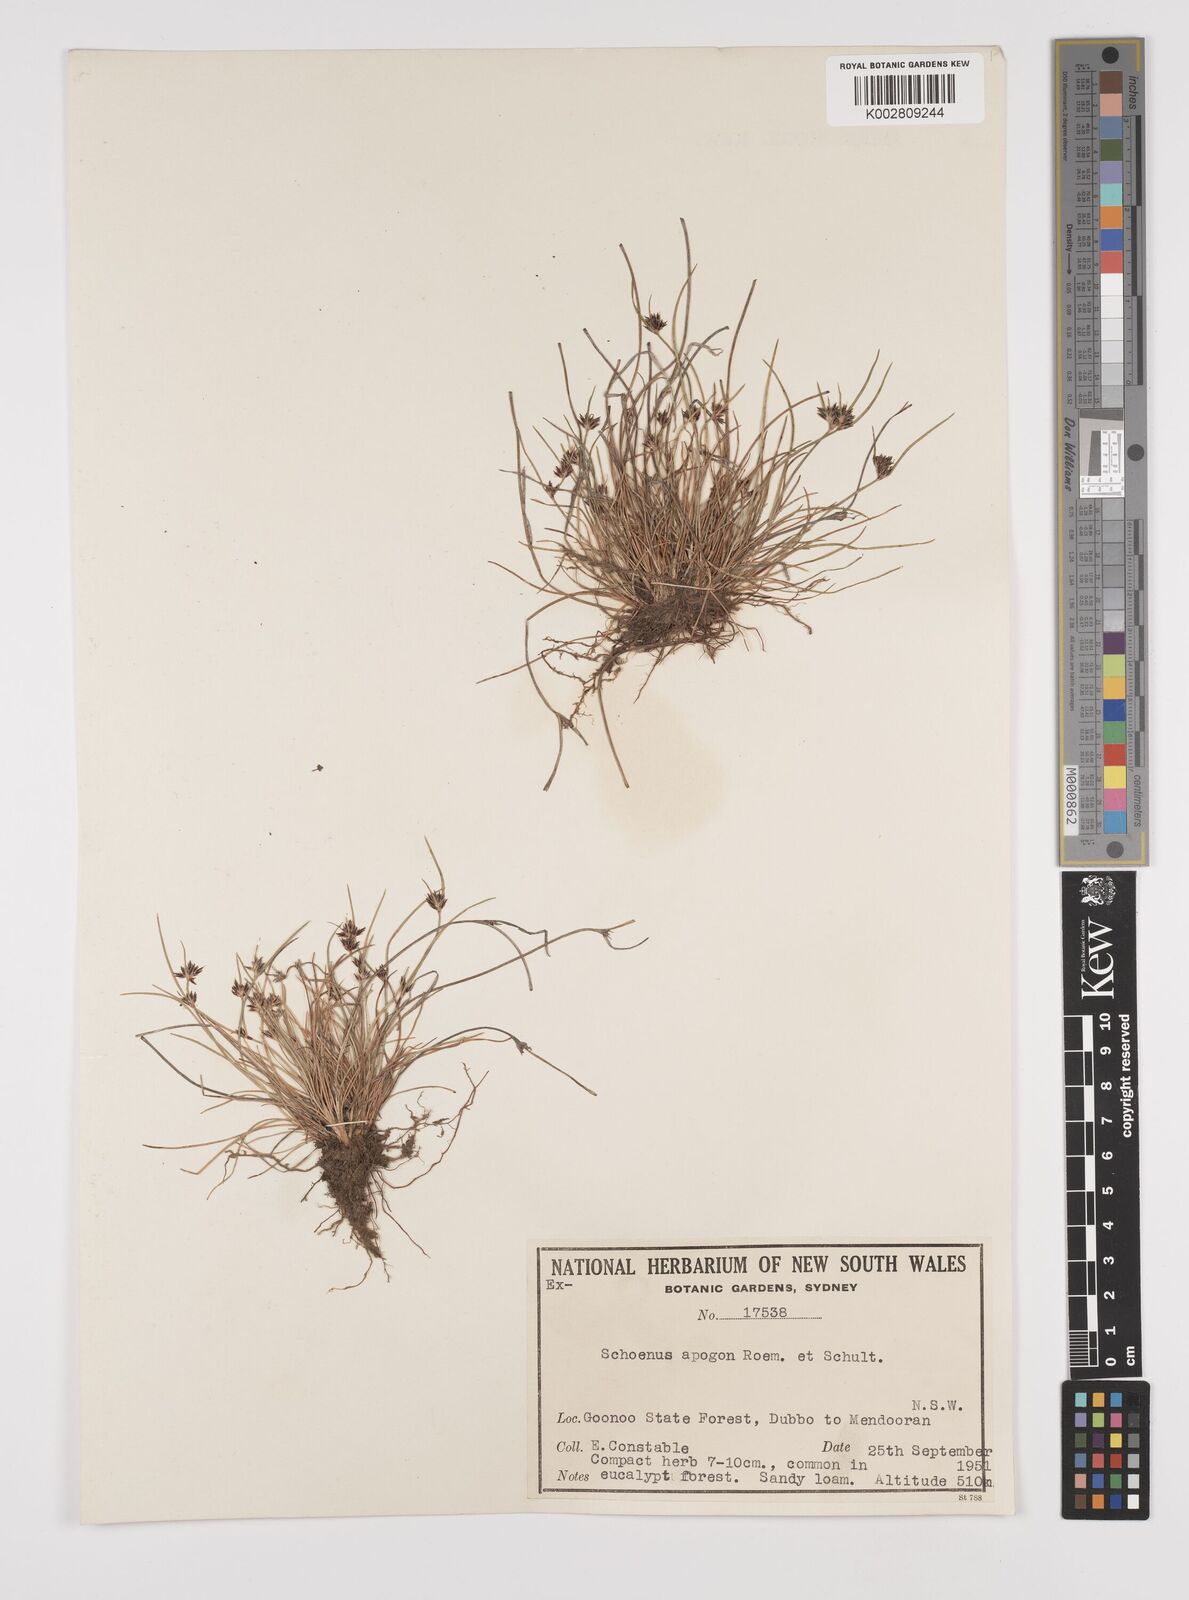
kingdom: Plantae
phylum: Tracheophyta
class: Liliopsida
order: Poales
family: Cyperaceae
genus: Schoenus
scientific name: Schoenus apogon
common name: Smooth bogrush
